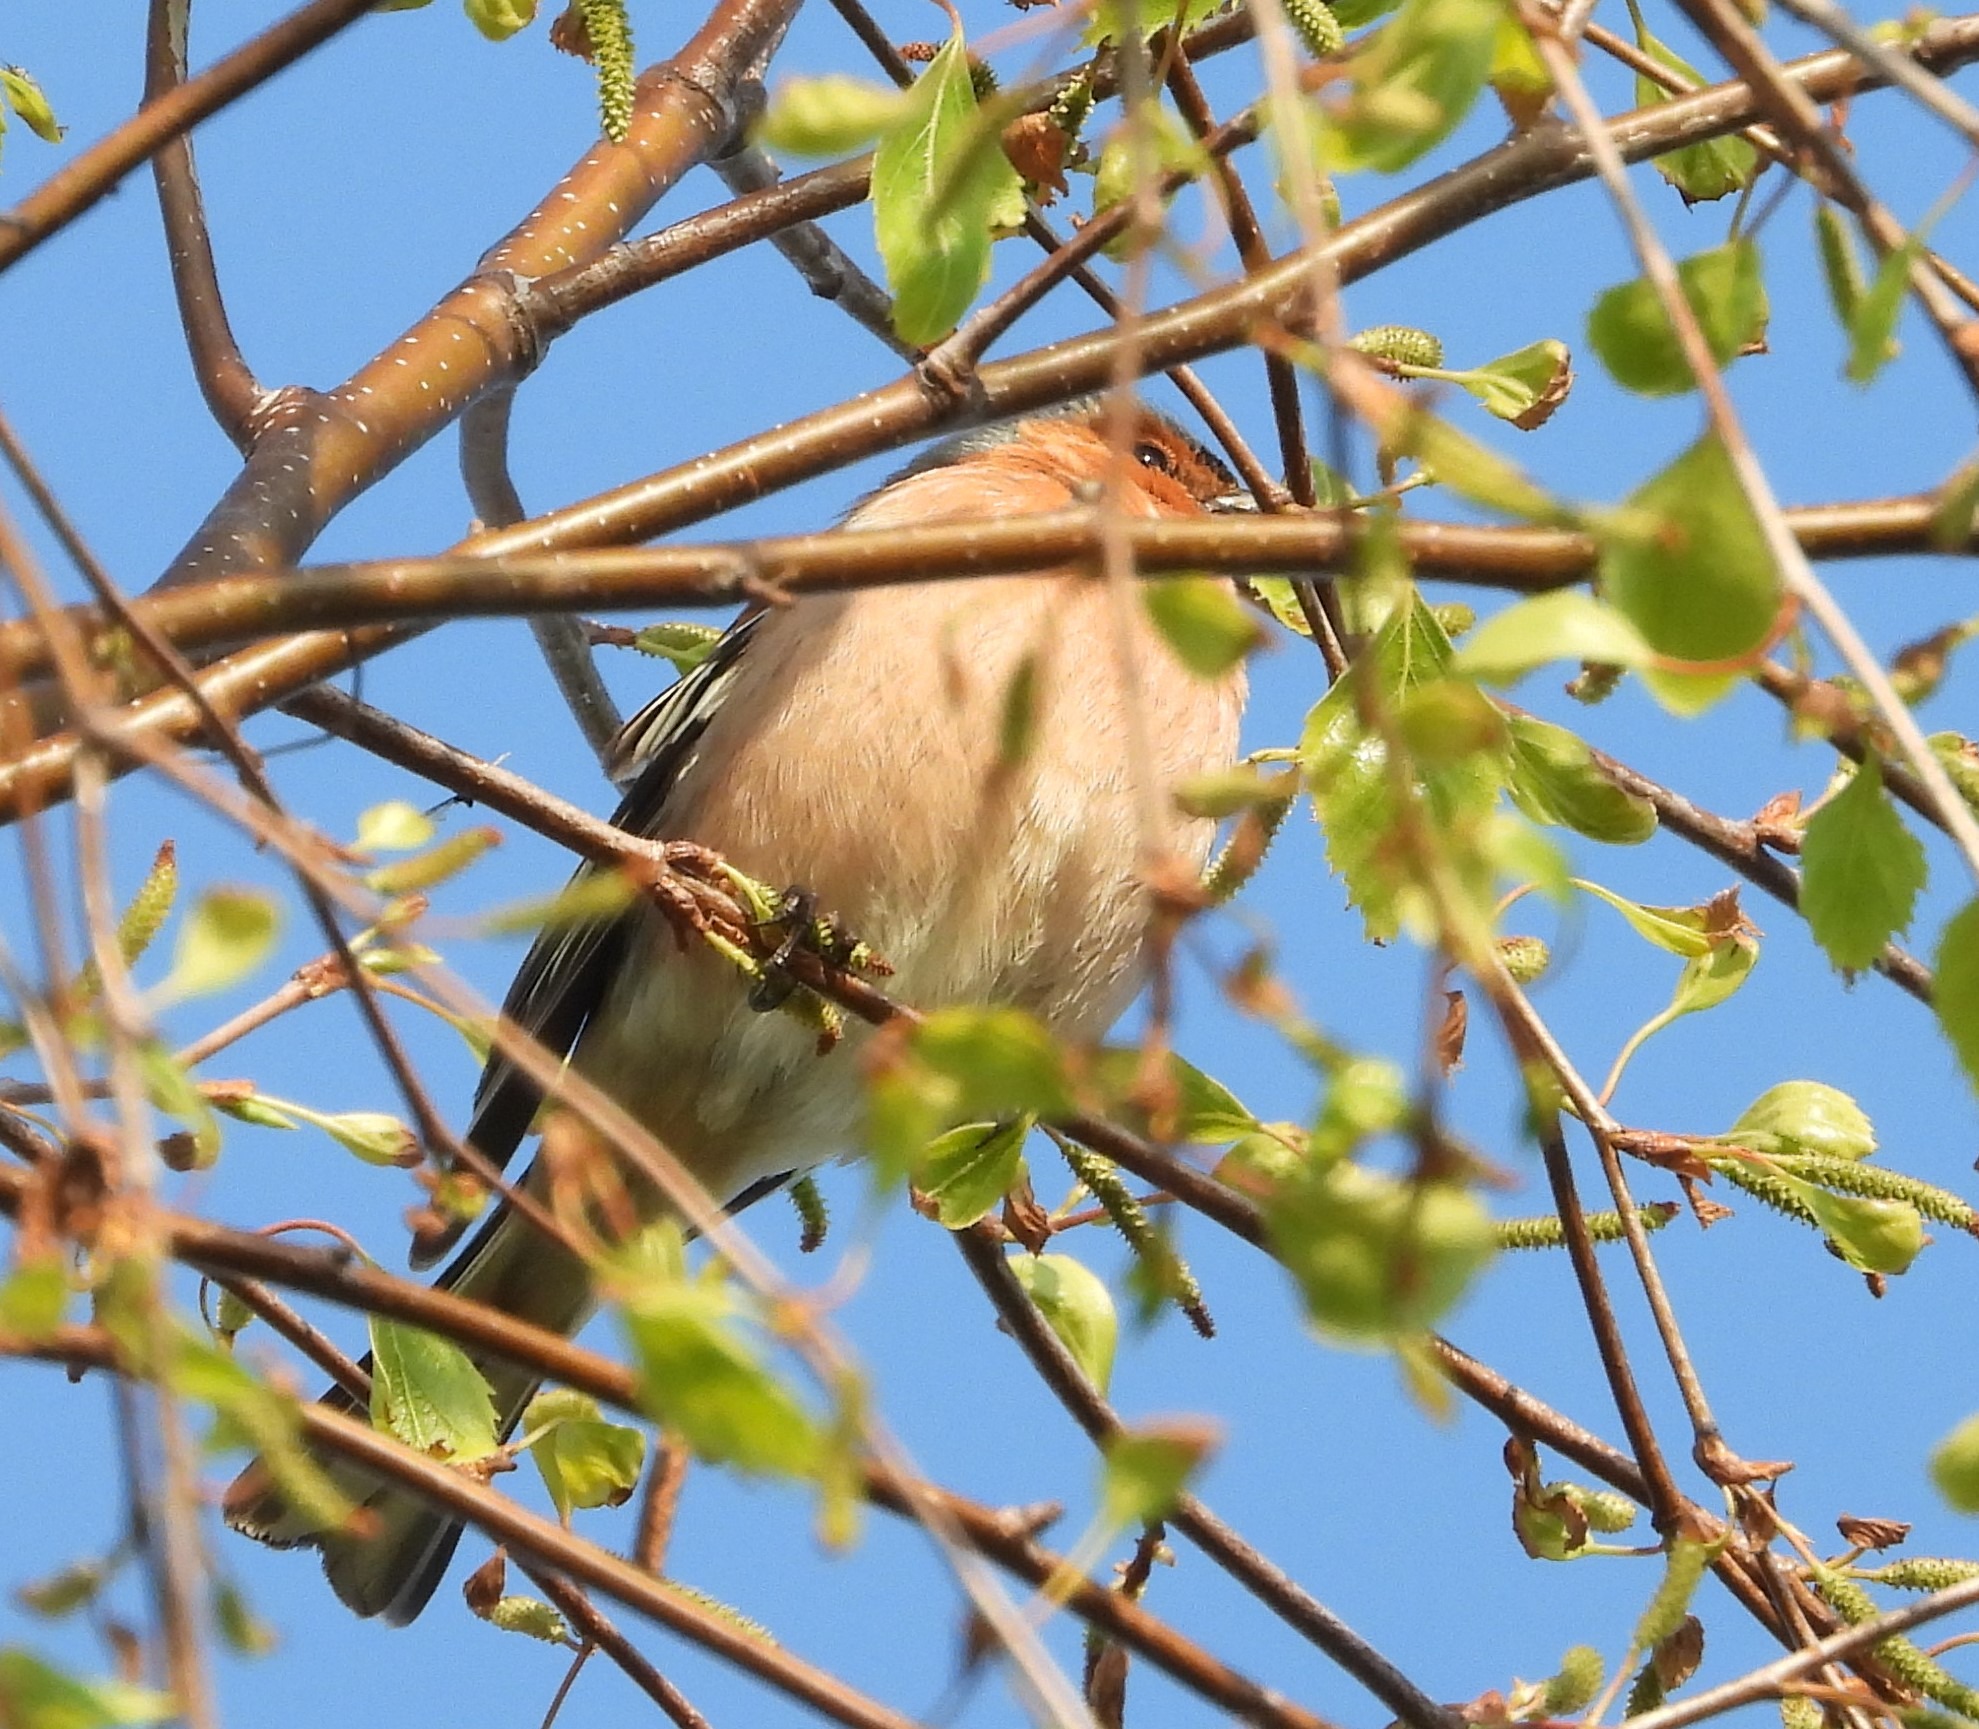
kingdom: Animalia
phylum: Chordata
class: Aves
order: Passeriformes
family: Fringillidae
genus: Fringilla
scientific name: Fringilla coelebs
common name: Bogfinke
